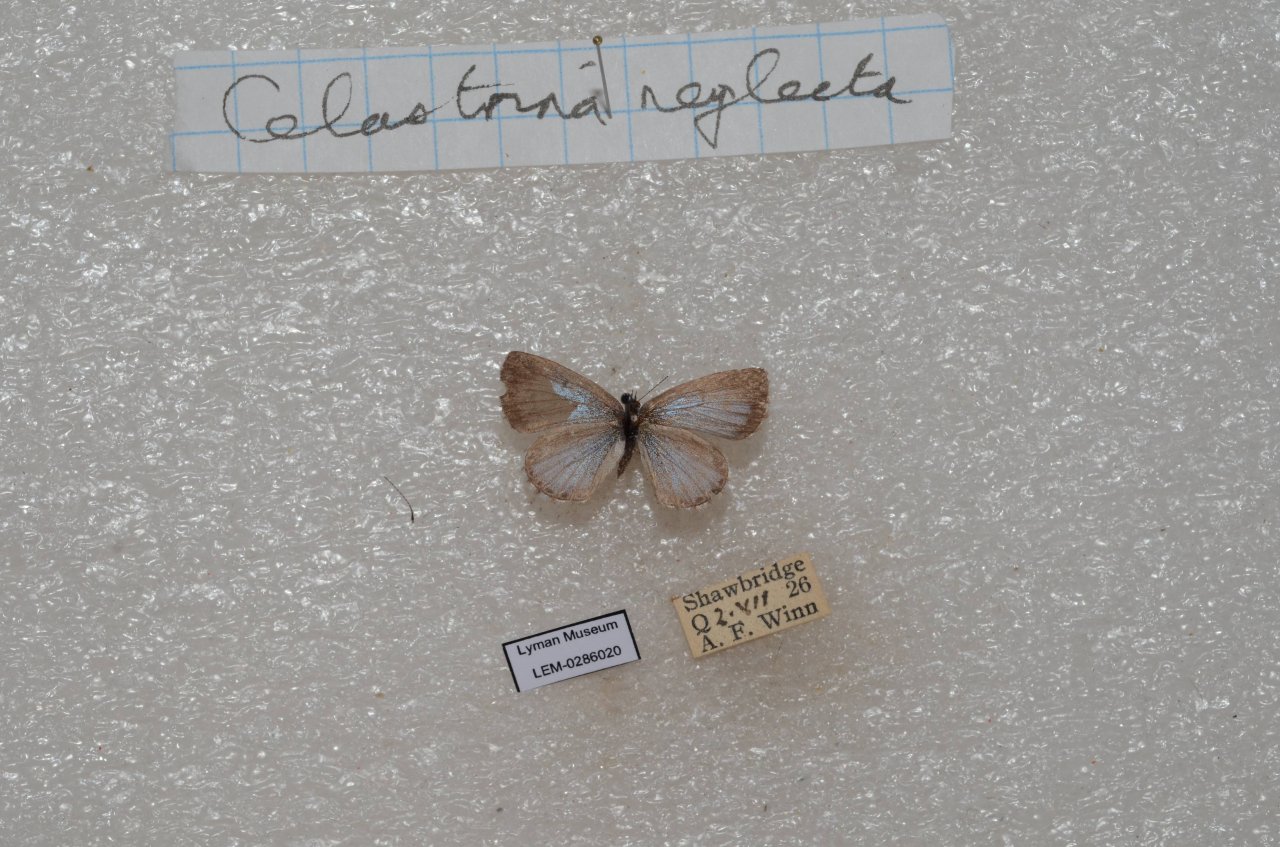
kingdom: Animalia
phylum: Arthropoda
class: Insecta
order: Lepidoptera
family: Lycaenidae
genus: Celastrina
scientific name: Celastrina lucia
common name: Northern Spring Azure
